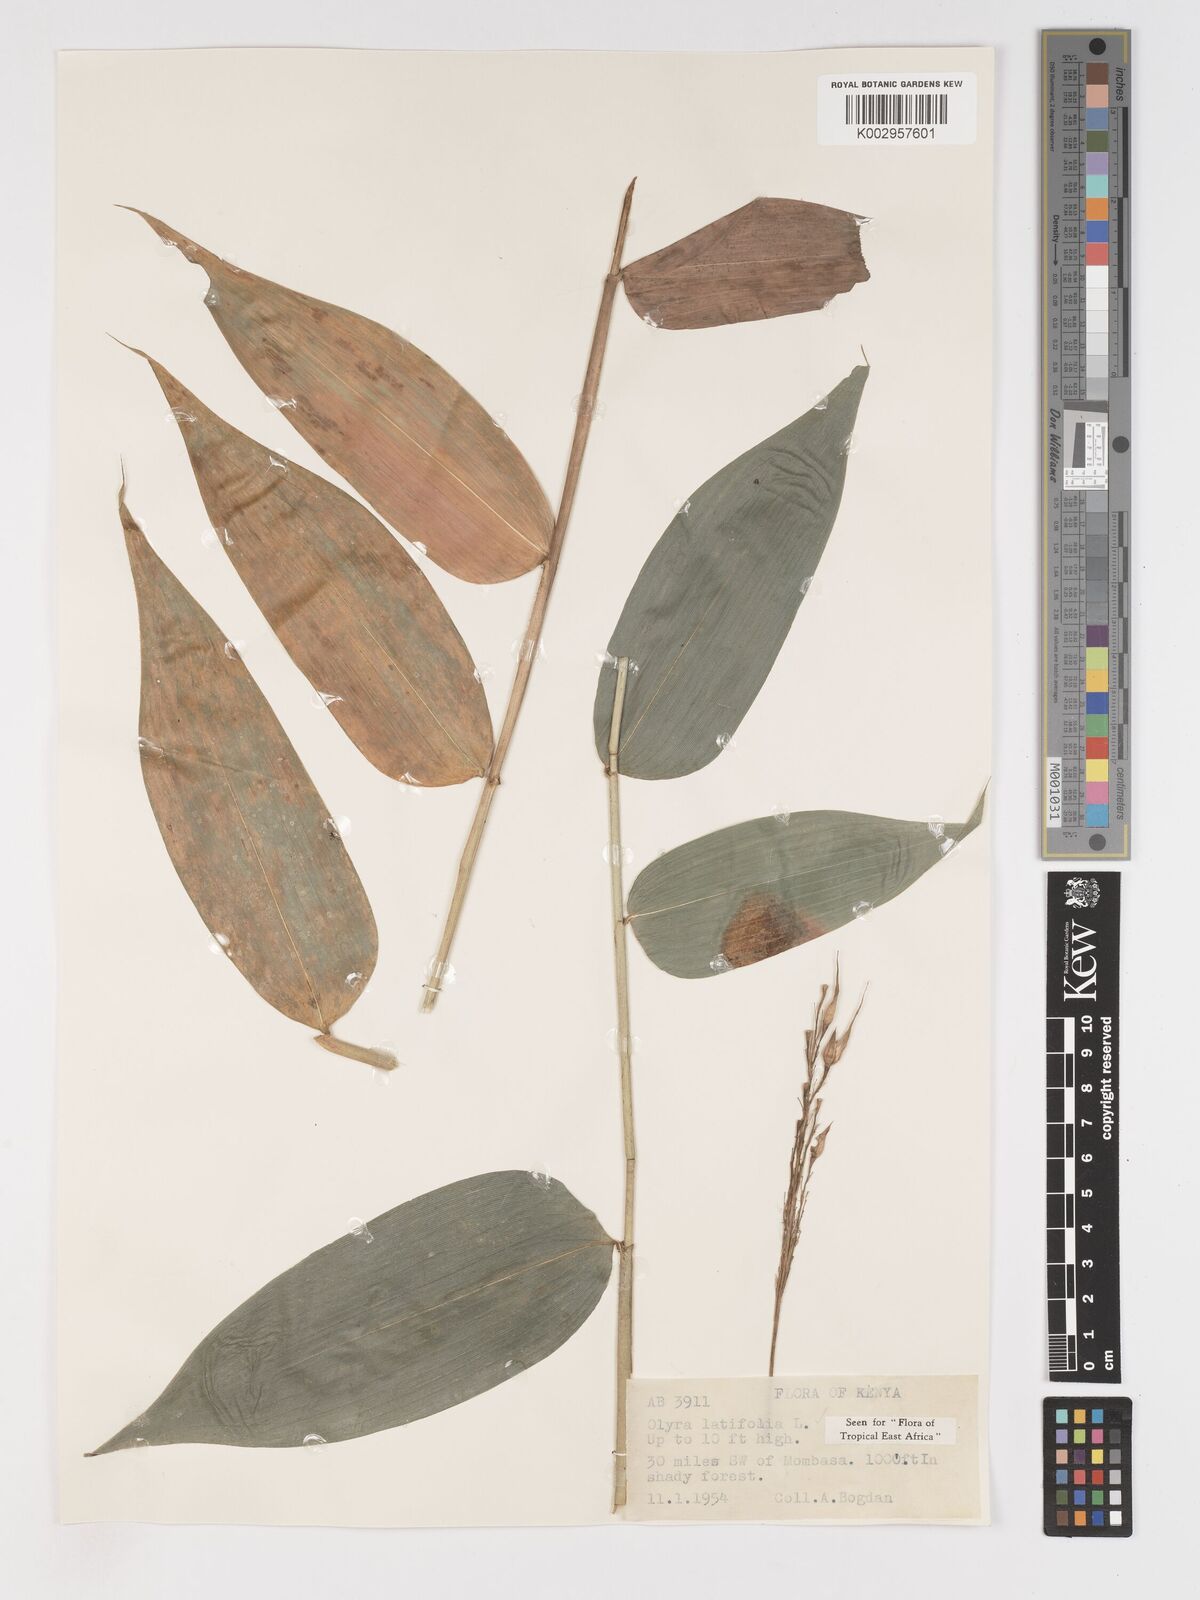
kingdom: Plantae
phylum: Tracheophyta
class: Liliopsida
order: Poales
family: Poaceae
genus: Olyra
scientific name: Olyra latifolia
